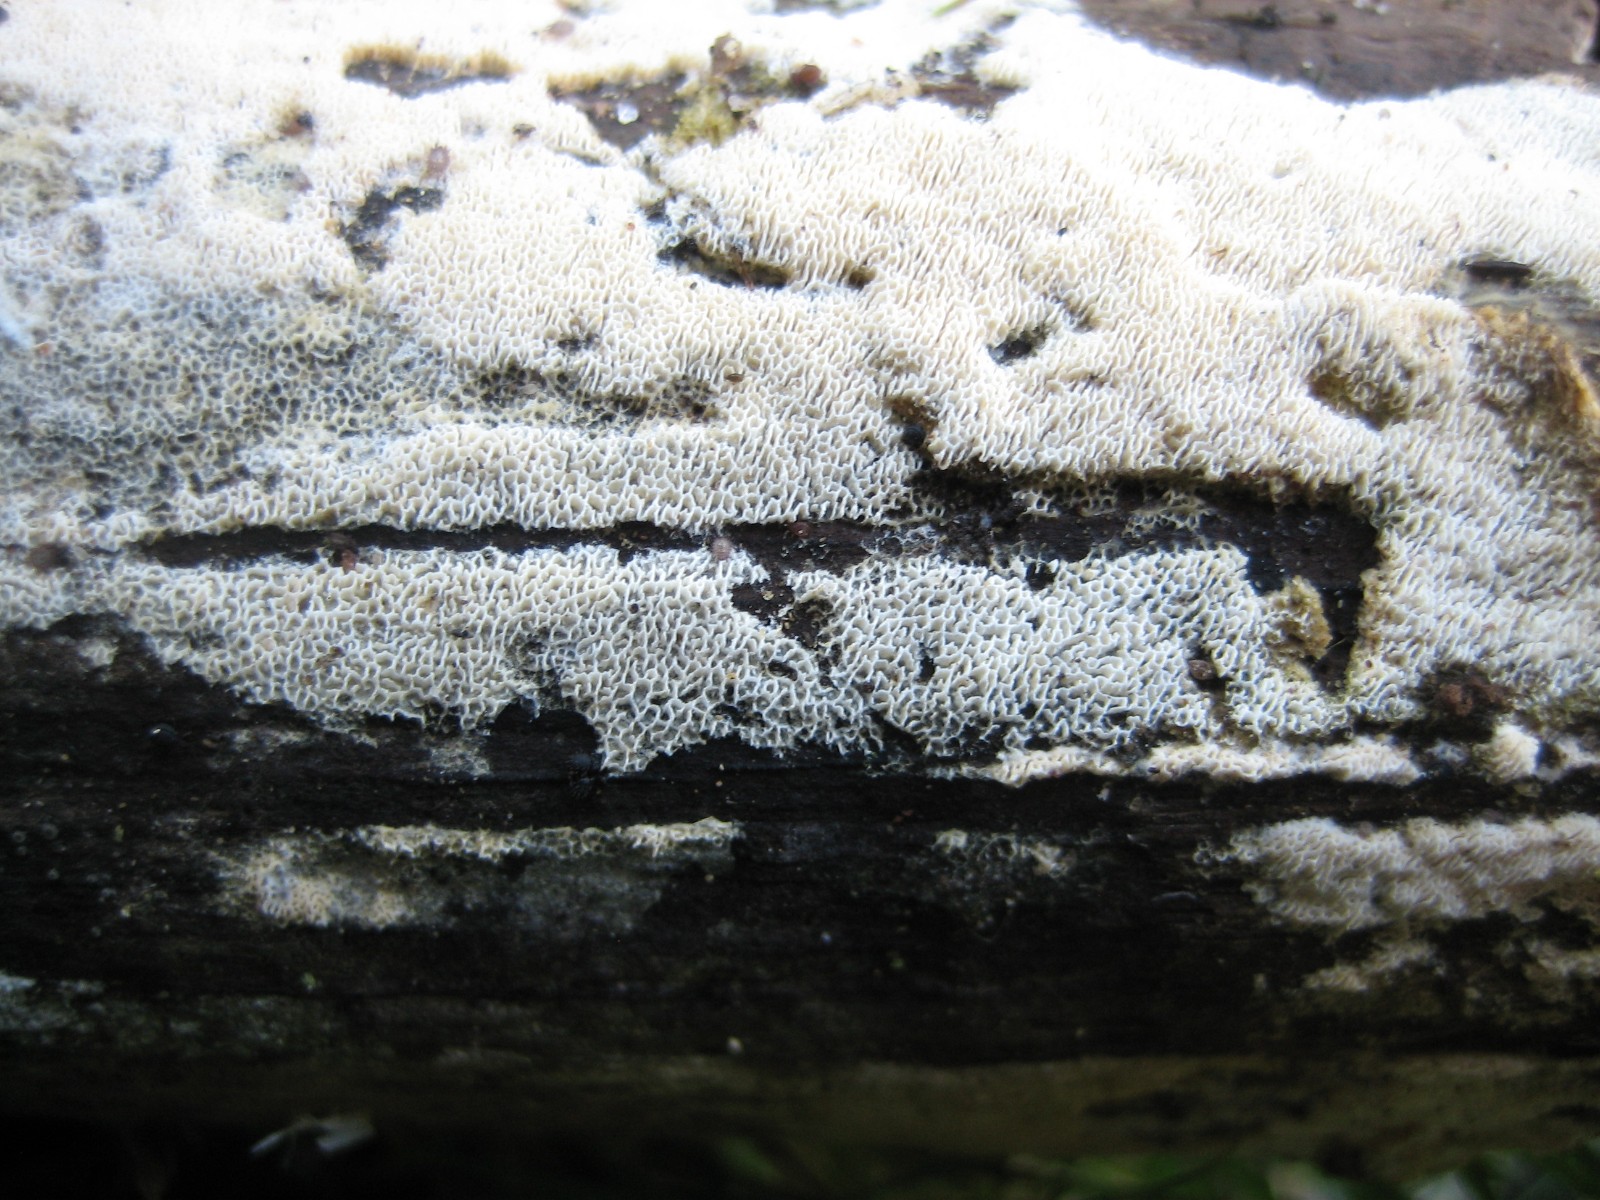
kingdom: Fungi
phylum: Basidiomycota
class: Agaricomycetes
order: Hymenochaetales
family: Schizoporaceae
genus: Xylodon
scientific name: Xylodon subtropicus
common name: labyrint-tandsvamp
